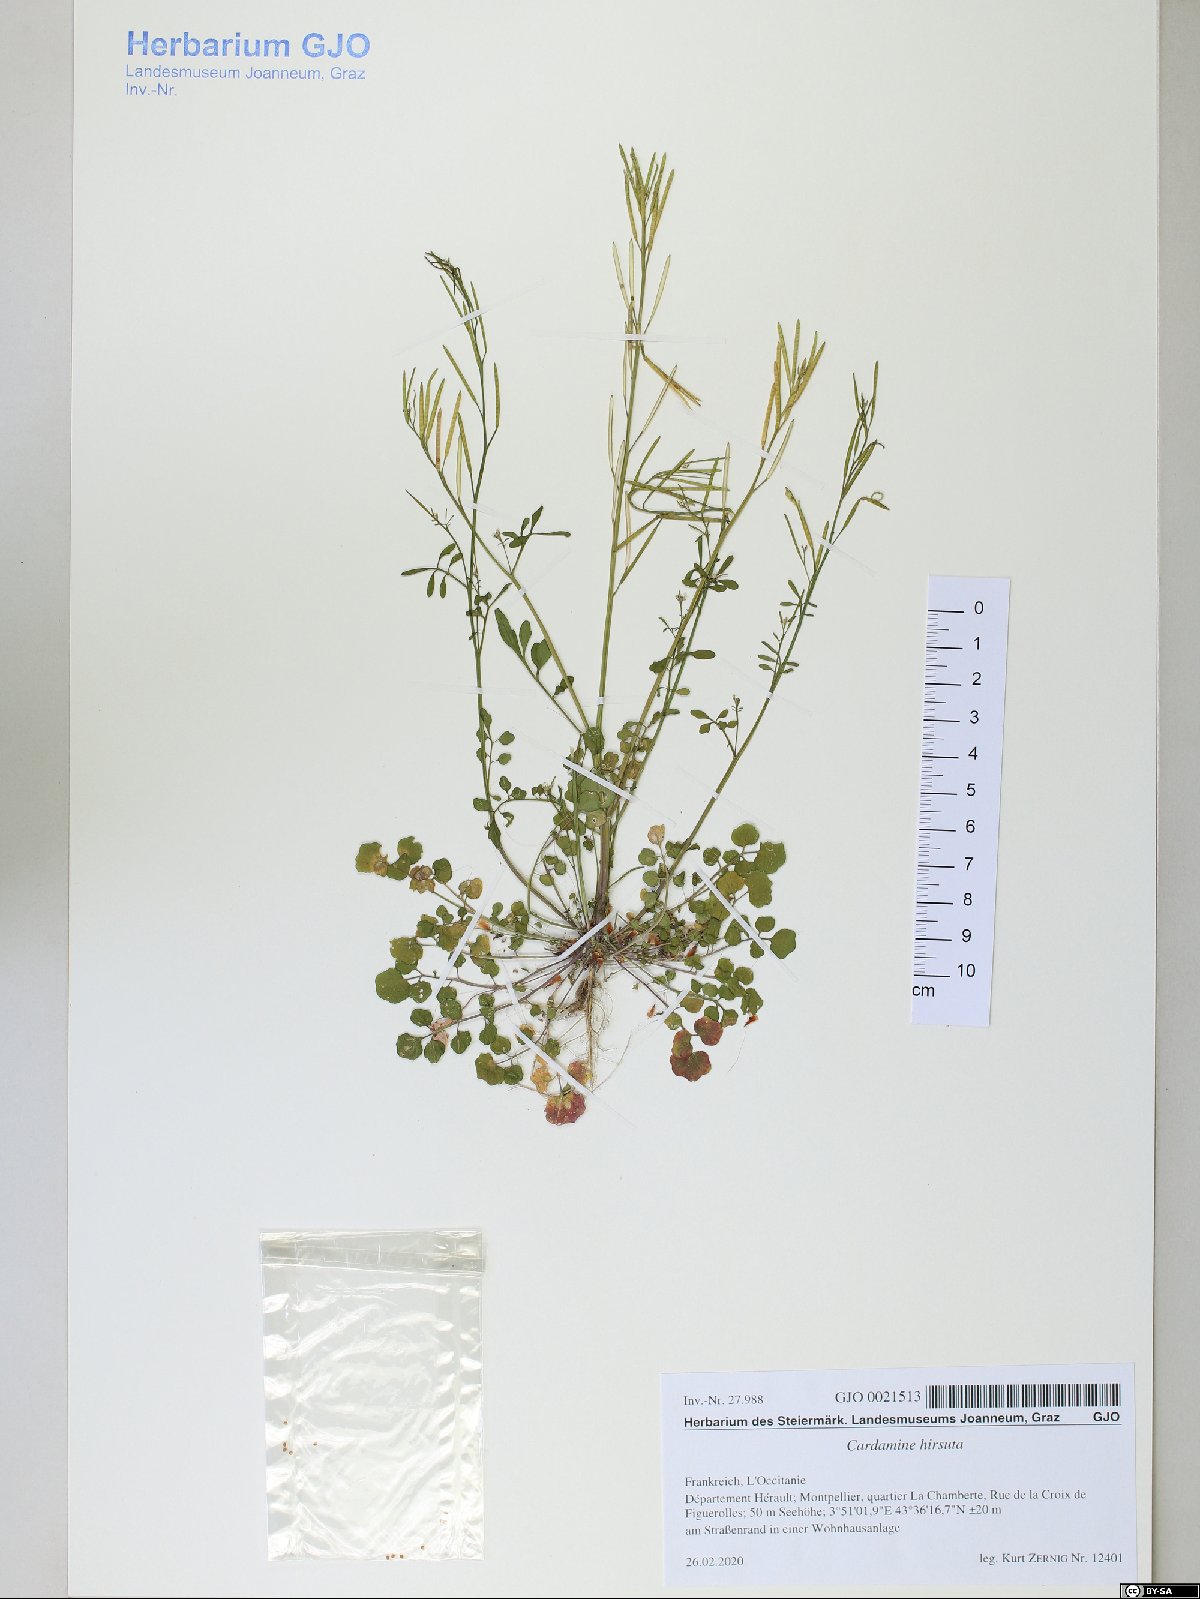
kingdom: Plantae
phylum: Tracheophyta
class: Magnoliopsida
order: Brassicales
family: Brassicaceae
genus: Cardamine
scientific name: Cardamine hirsuta
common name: Hairy bittercress
